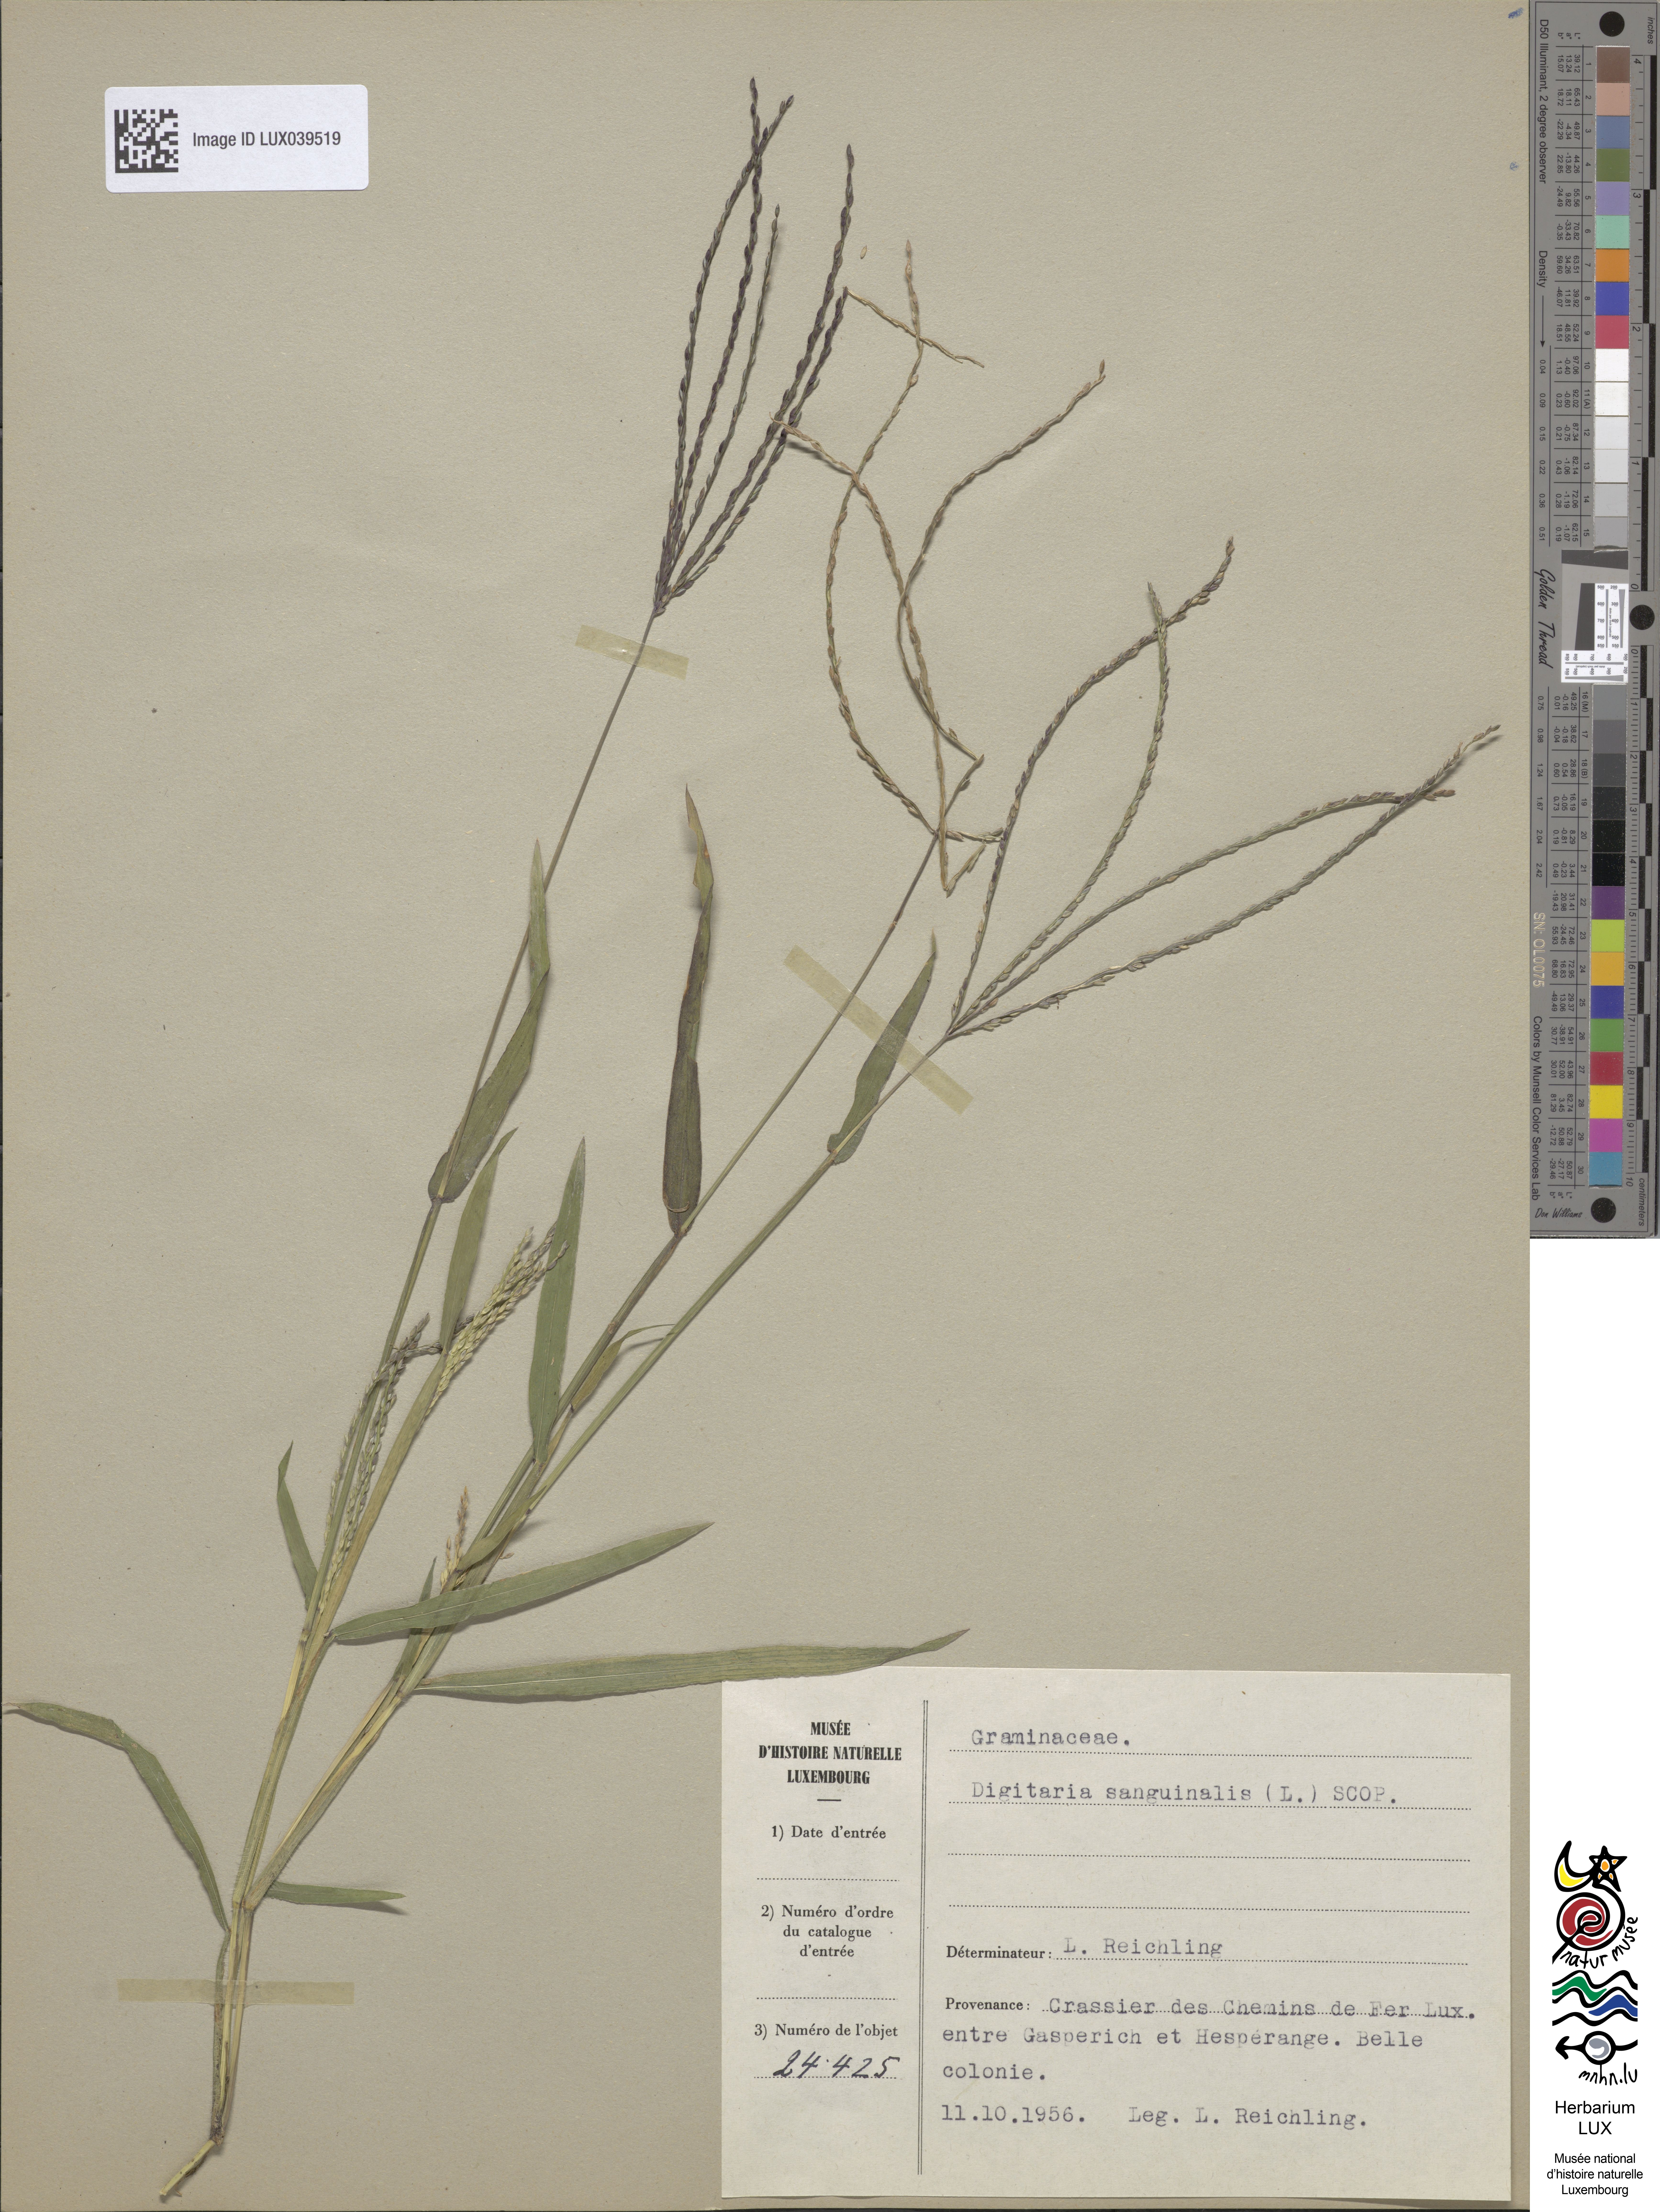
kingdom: Plantae
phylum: Tracheophyta
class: Liliopsida
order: Poales
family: Poaceae
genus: Digitaria
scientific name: Digitaria sanguinalis
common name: Hairy crabgrass
